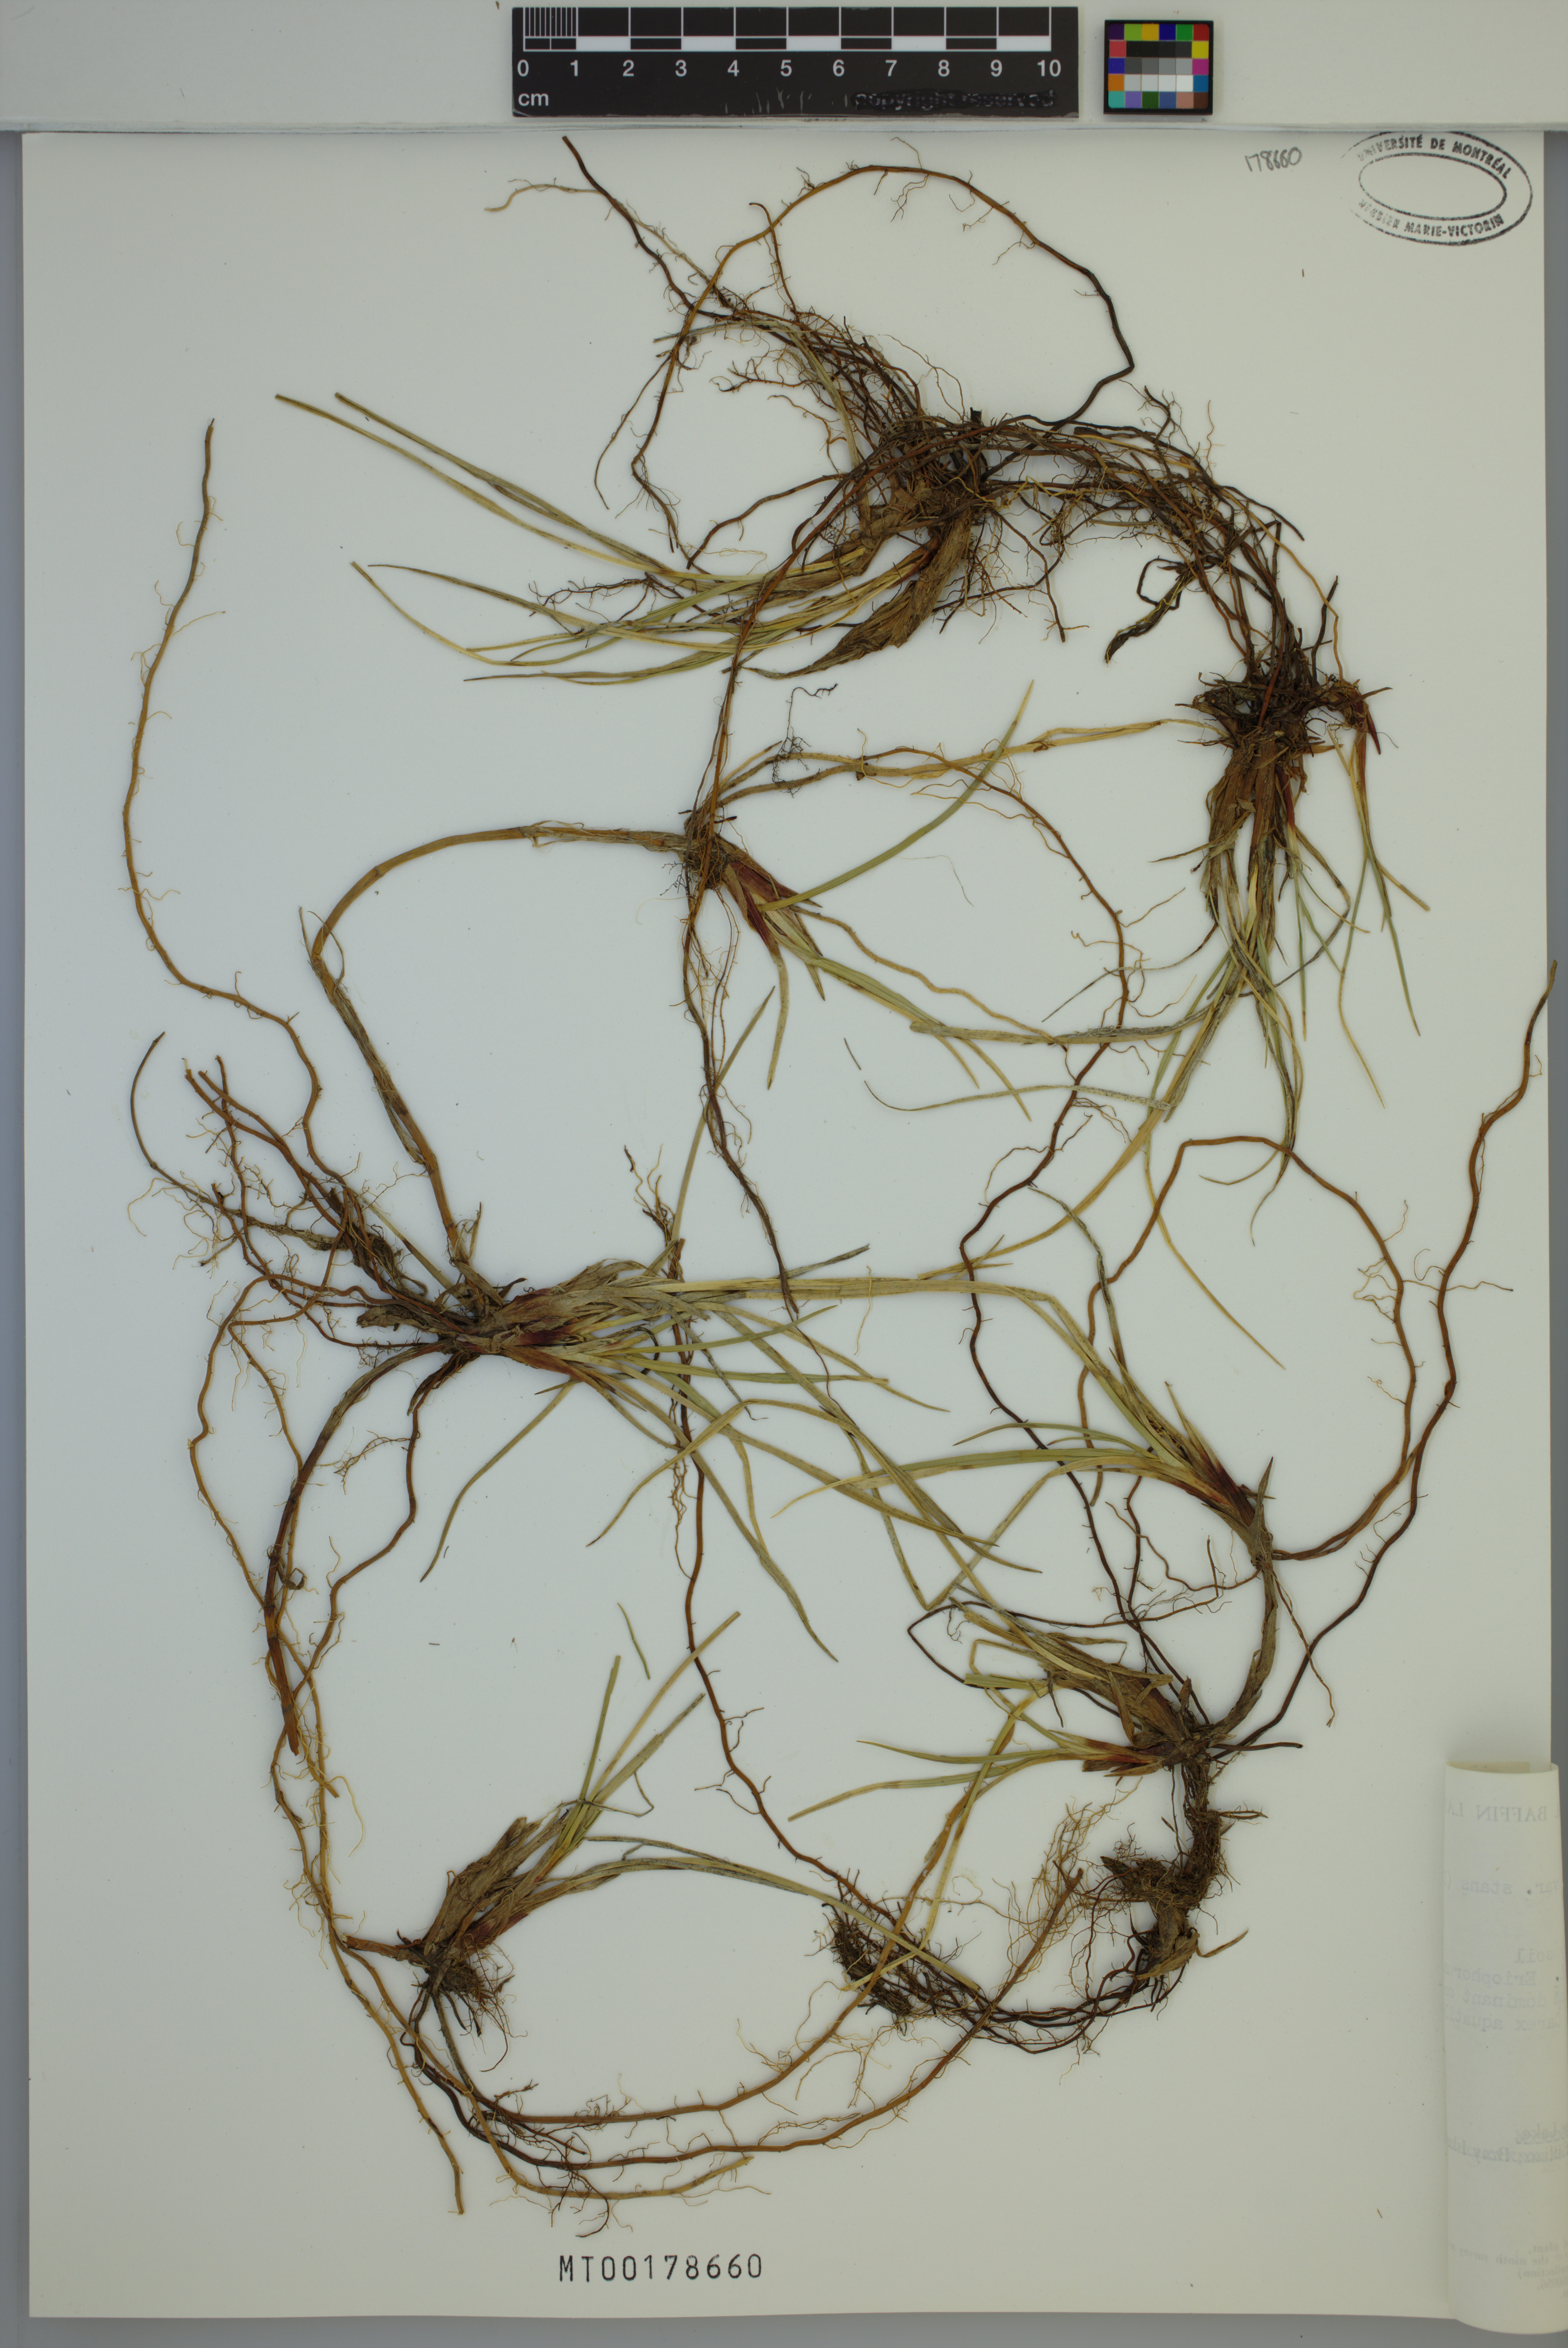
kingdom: Plantae
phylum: Tracheophyta
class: Liliopsida
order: Poales
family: Cyperaceae
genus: Carex
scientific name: Carex aquatilis
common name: Water sedge
